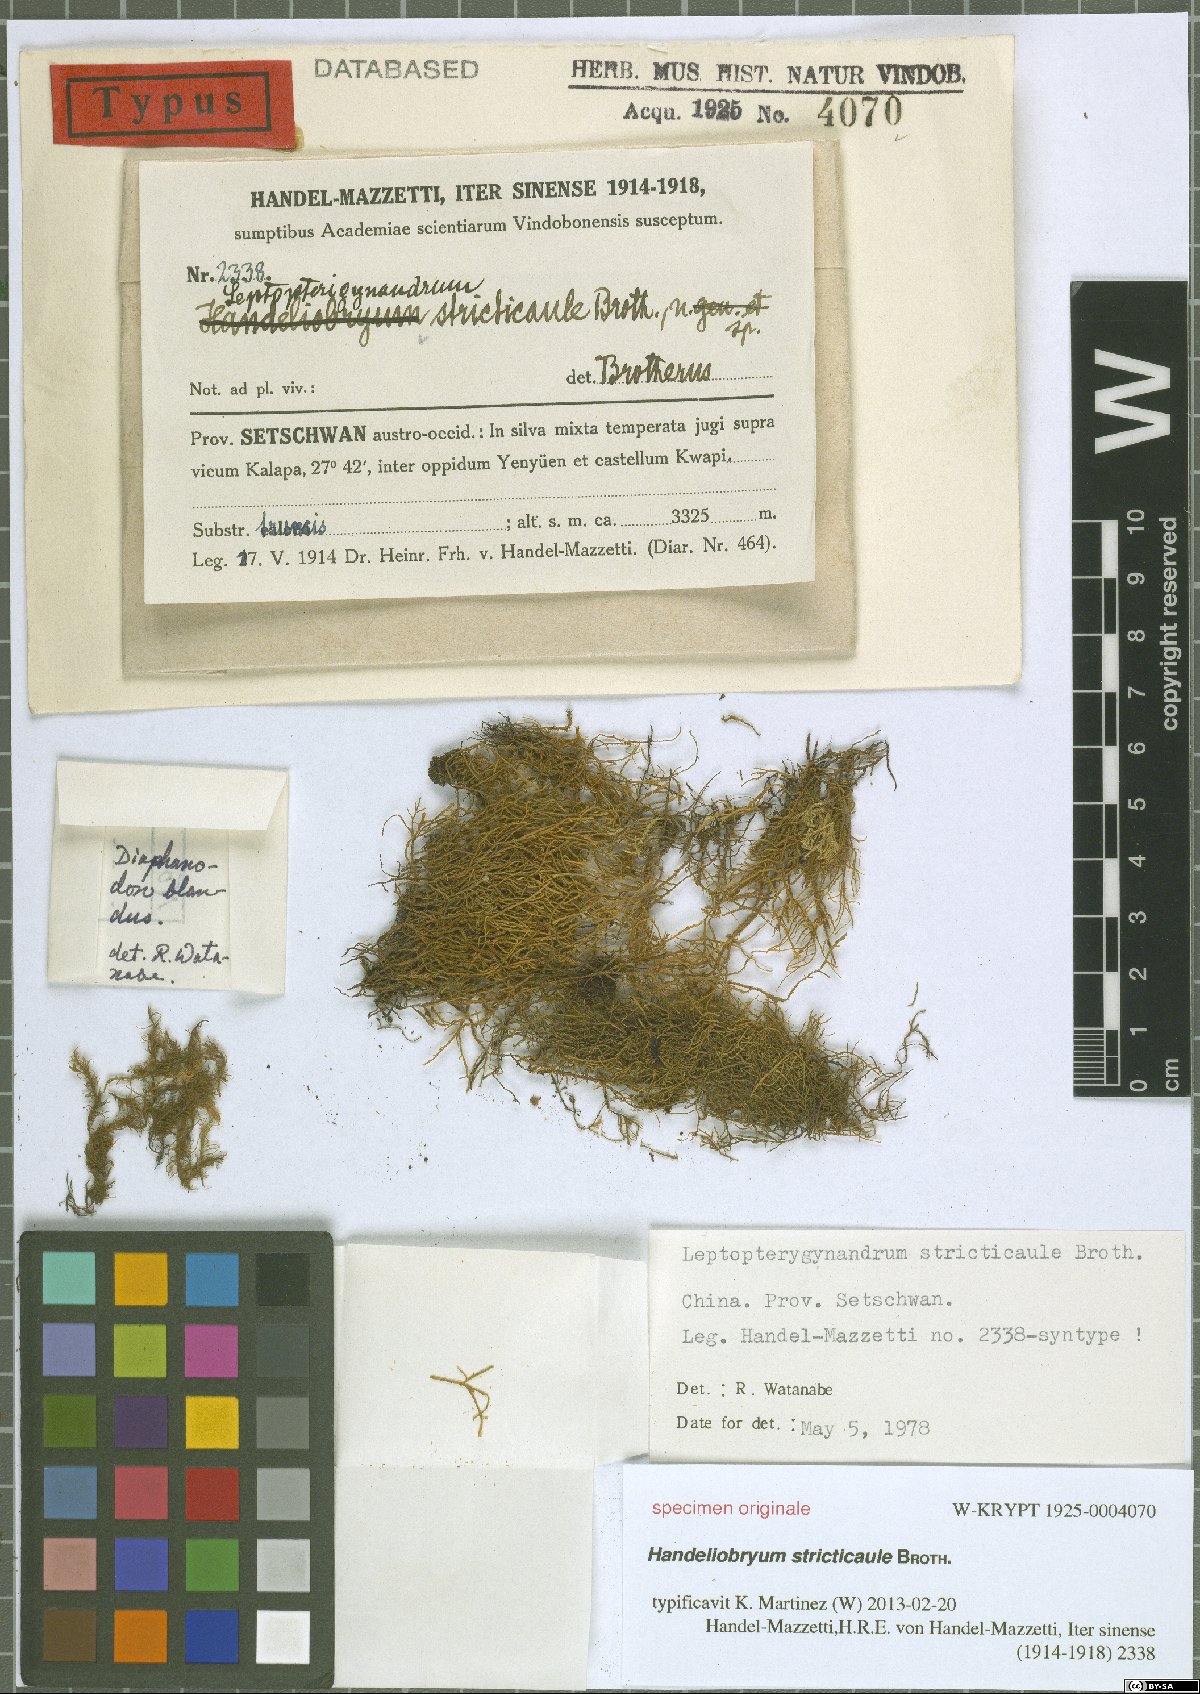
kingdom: Plantae
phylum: Bryophyta
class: Bryopsida
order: Hypnales
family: Taxiphyllaceae
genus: Leptopterigynandrum
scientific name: Leptopterigynandrum stricticaule
